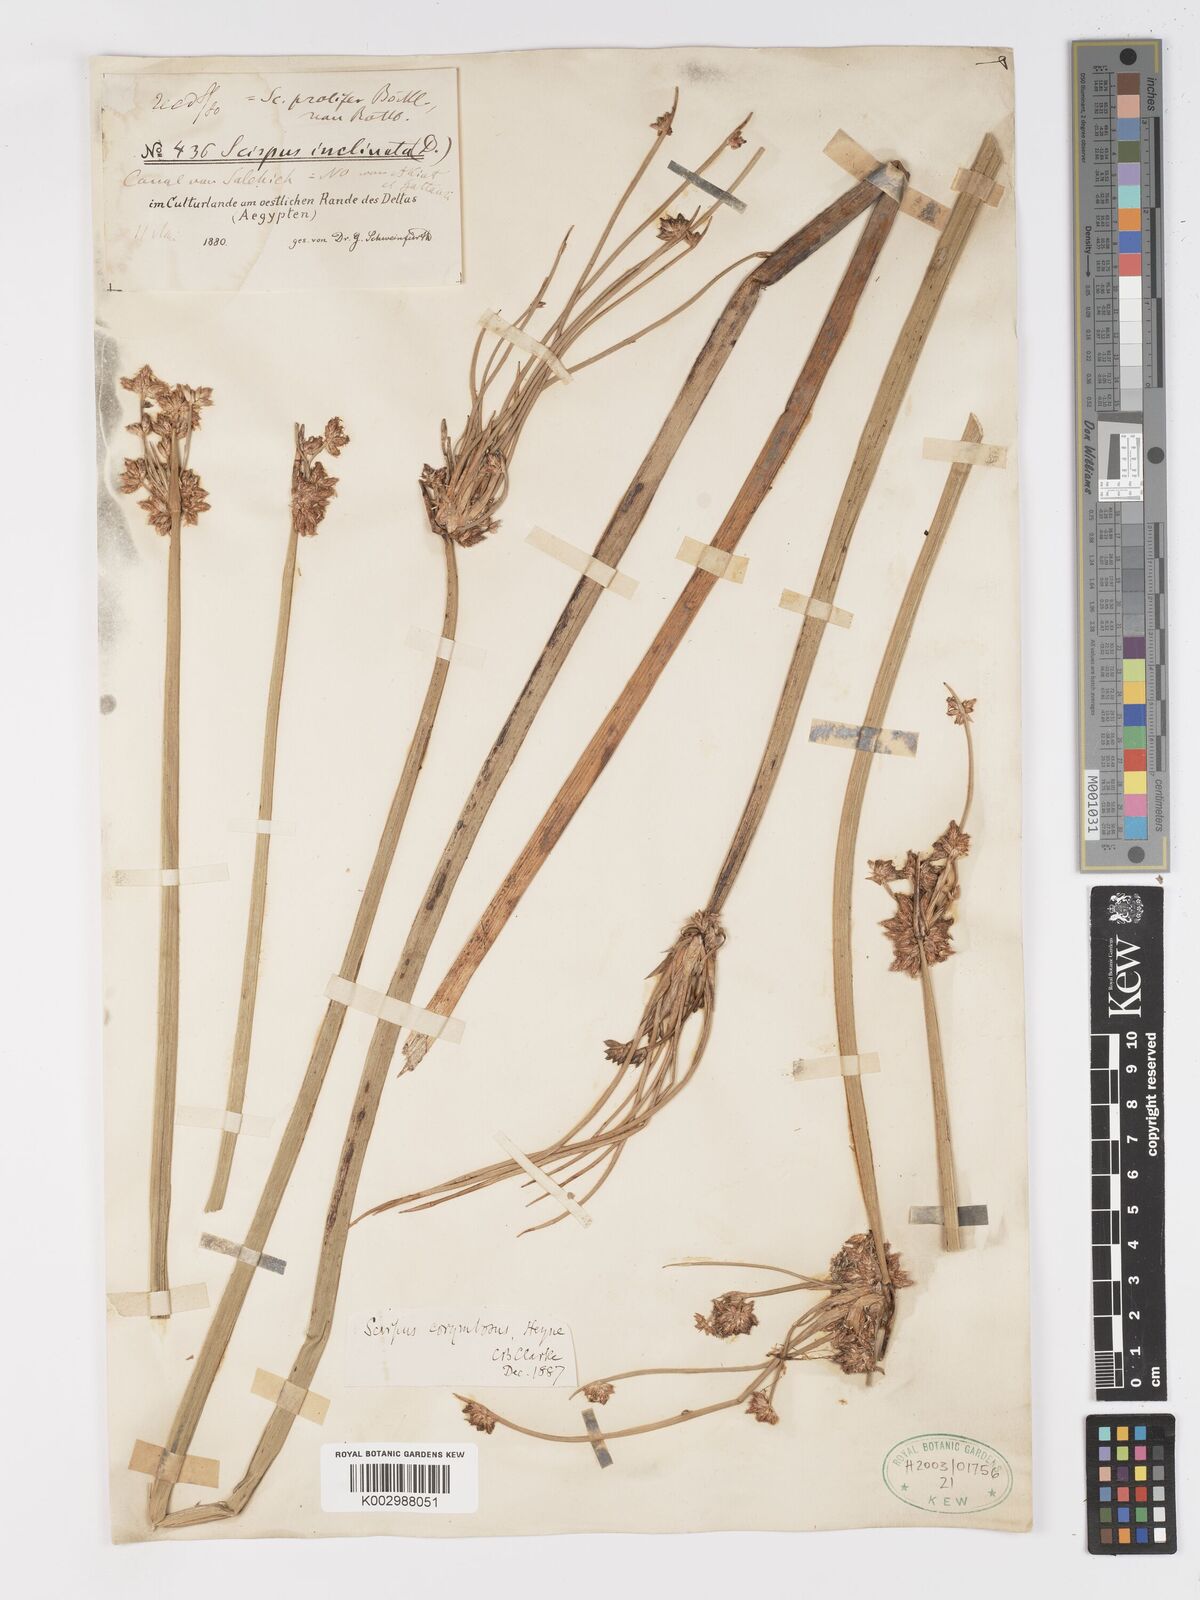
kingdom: Plantae
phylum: Tracheophyta
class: Liliopsida
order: Poales
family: Cyperaceae
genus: Schoenoplectiella
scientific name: Schoenoplectiella corymbosa
